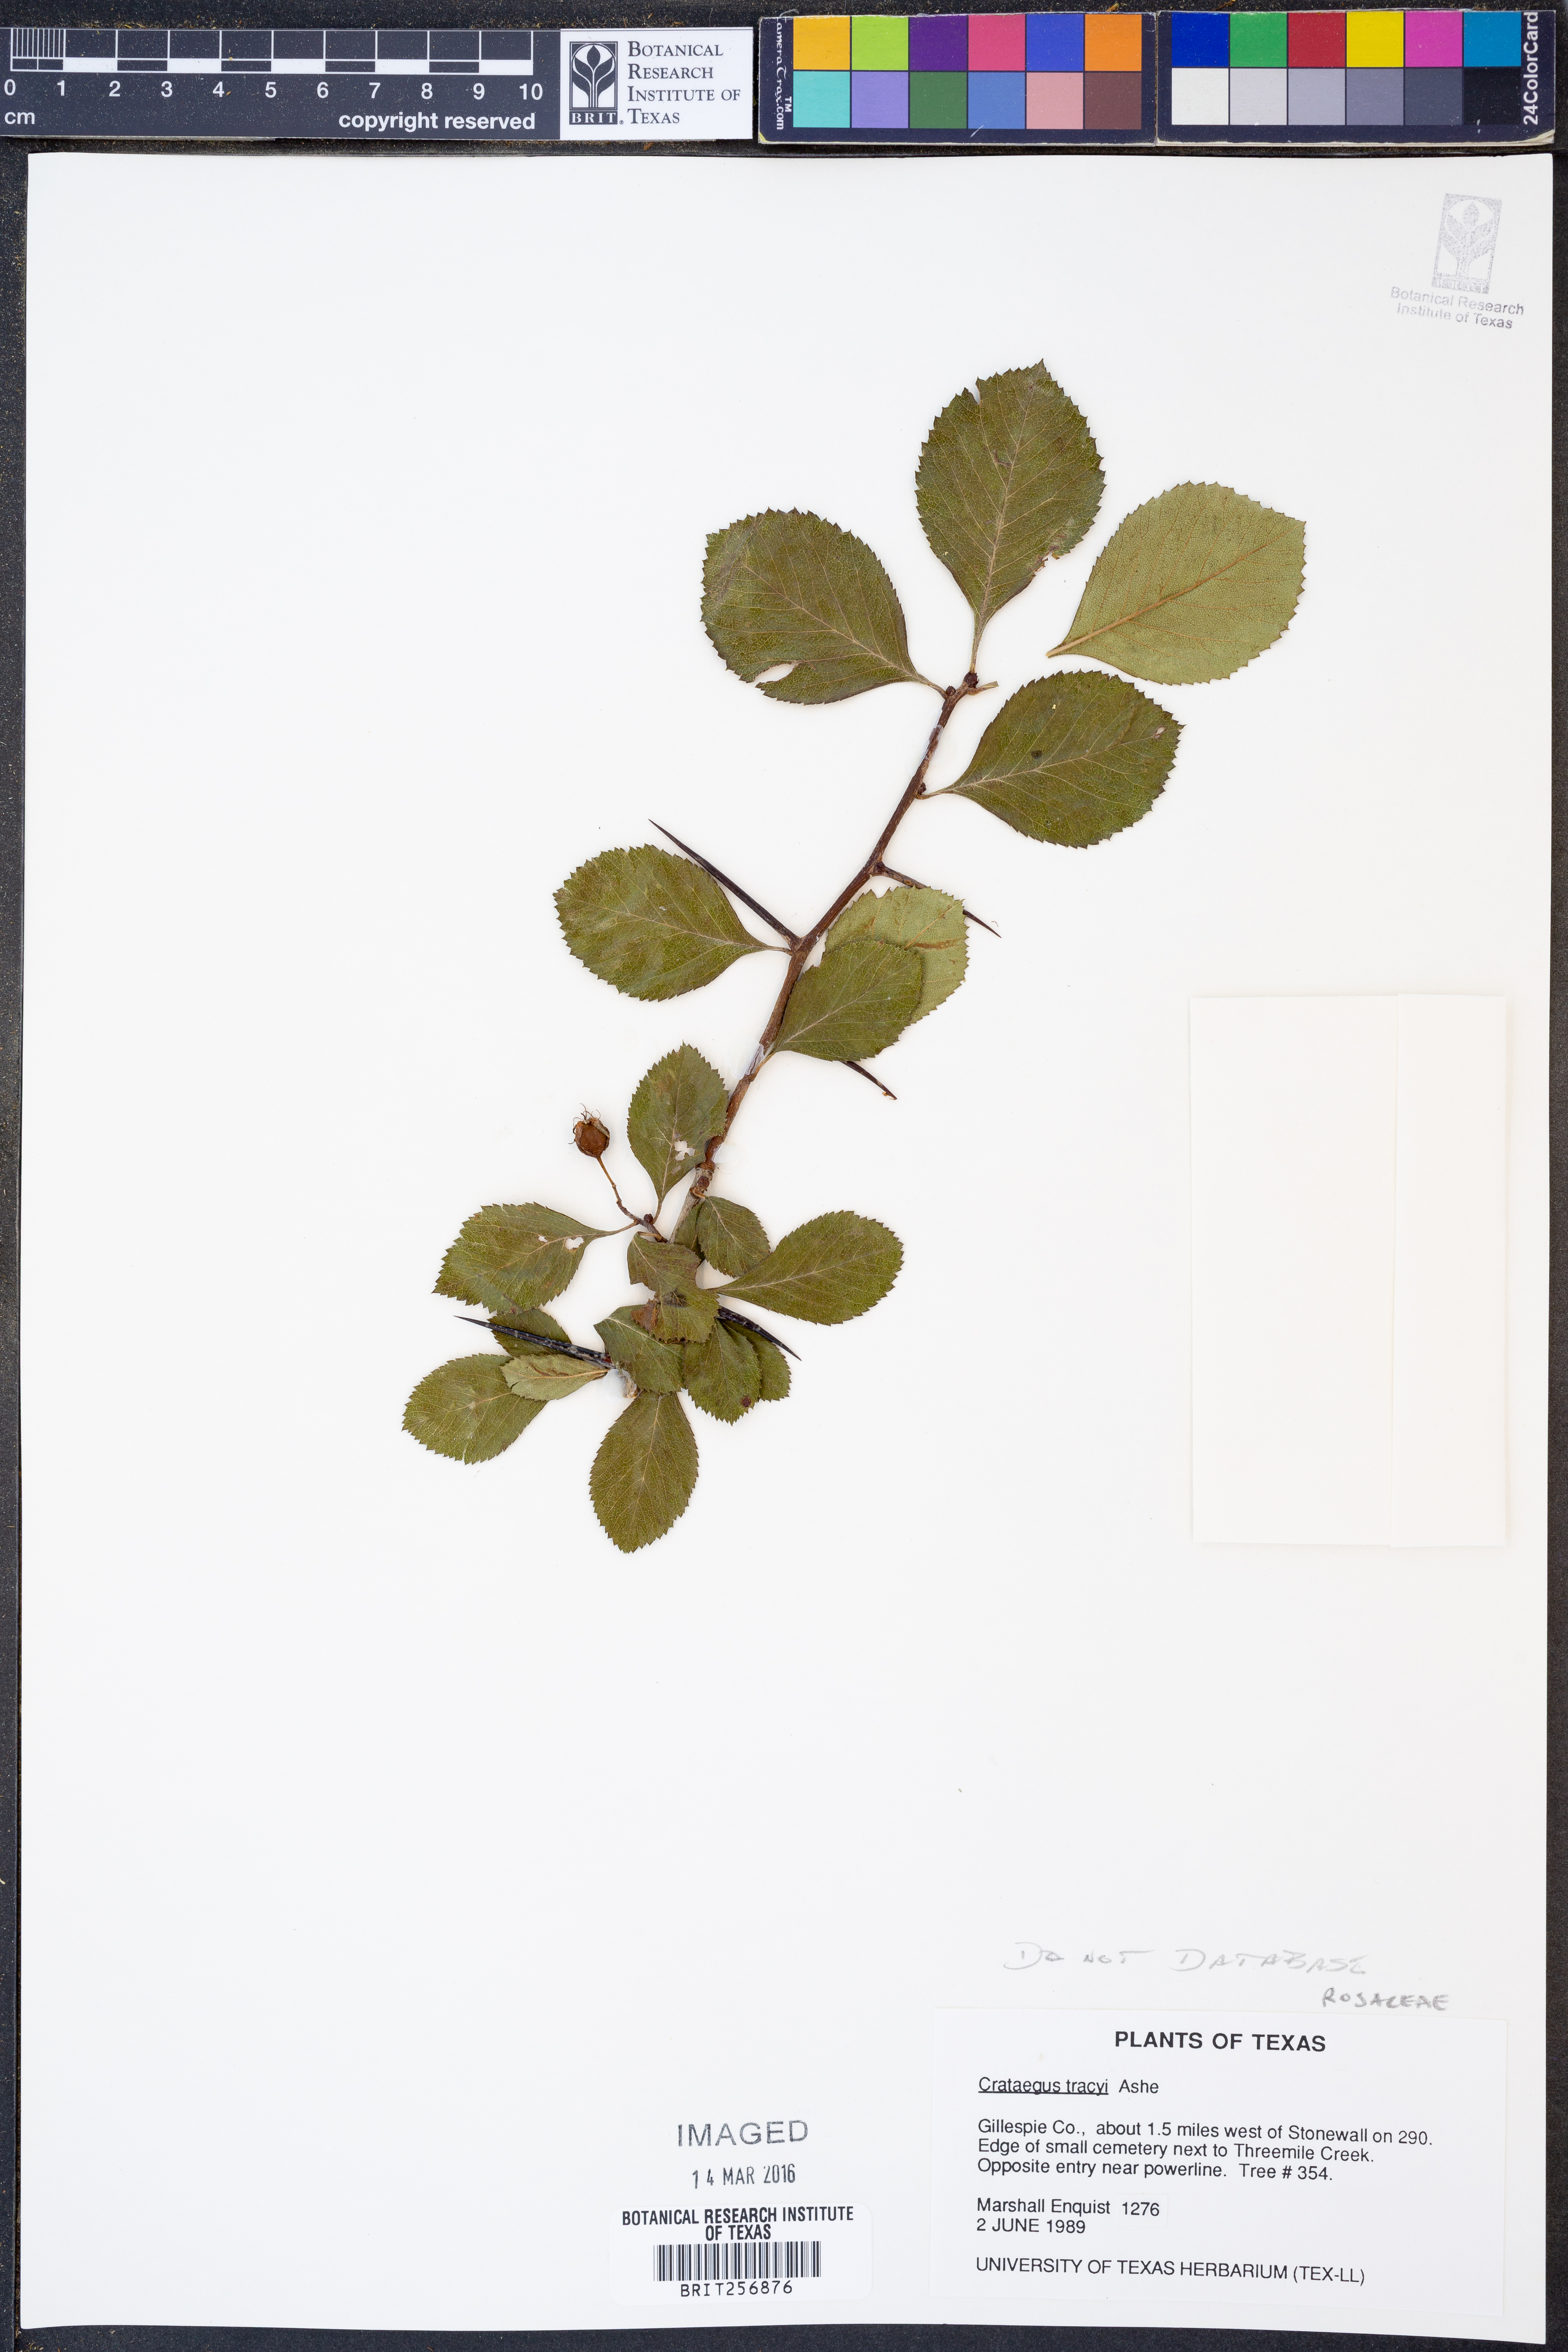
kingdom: Plantae
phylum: Tracheophyta
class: Magnoliopsida
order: Rosales
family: Rosaceae
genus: Crataegus
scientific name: Crataegus tracyi
